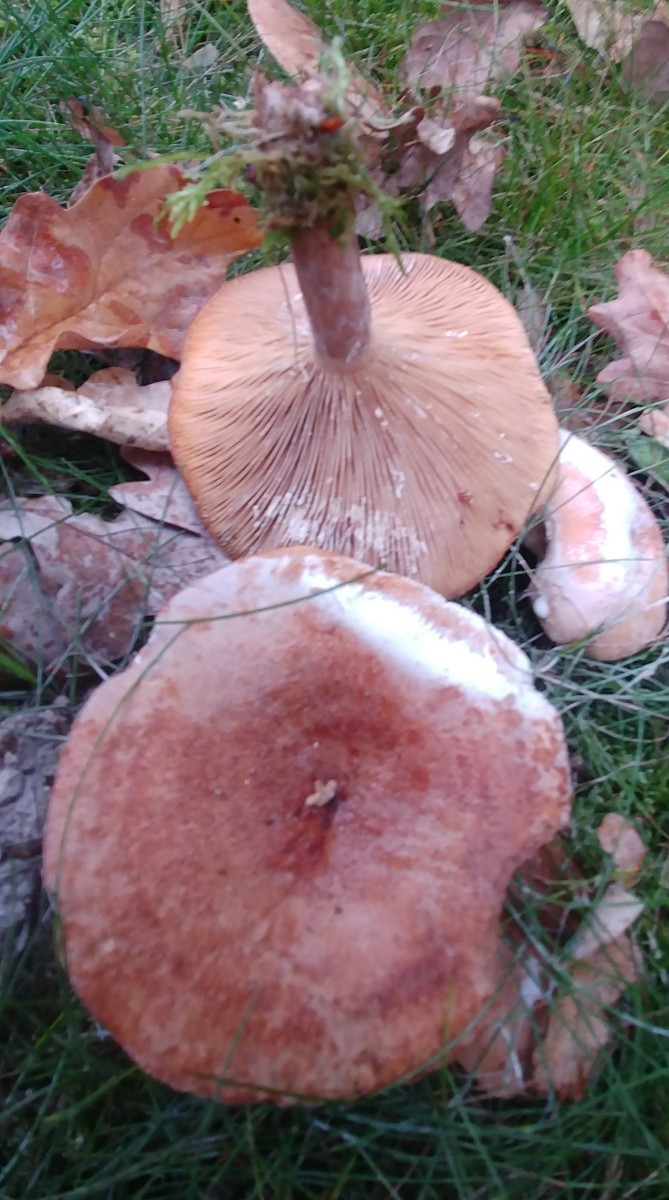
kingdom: Fungi
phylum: Basidiomycota
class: Agaricomycetes
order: Russulales
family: Russulaceae
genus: Lactarius
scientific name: Lactarius quietus
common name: ege-mælkehat
